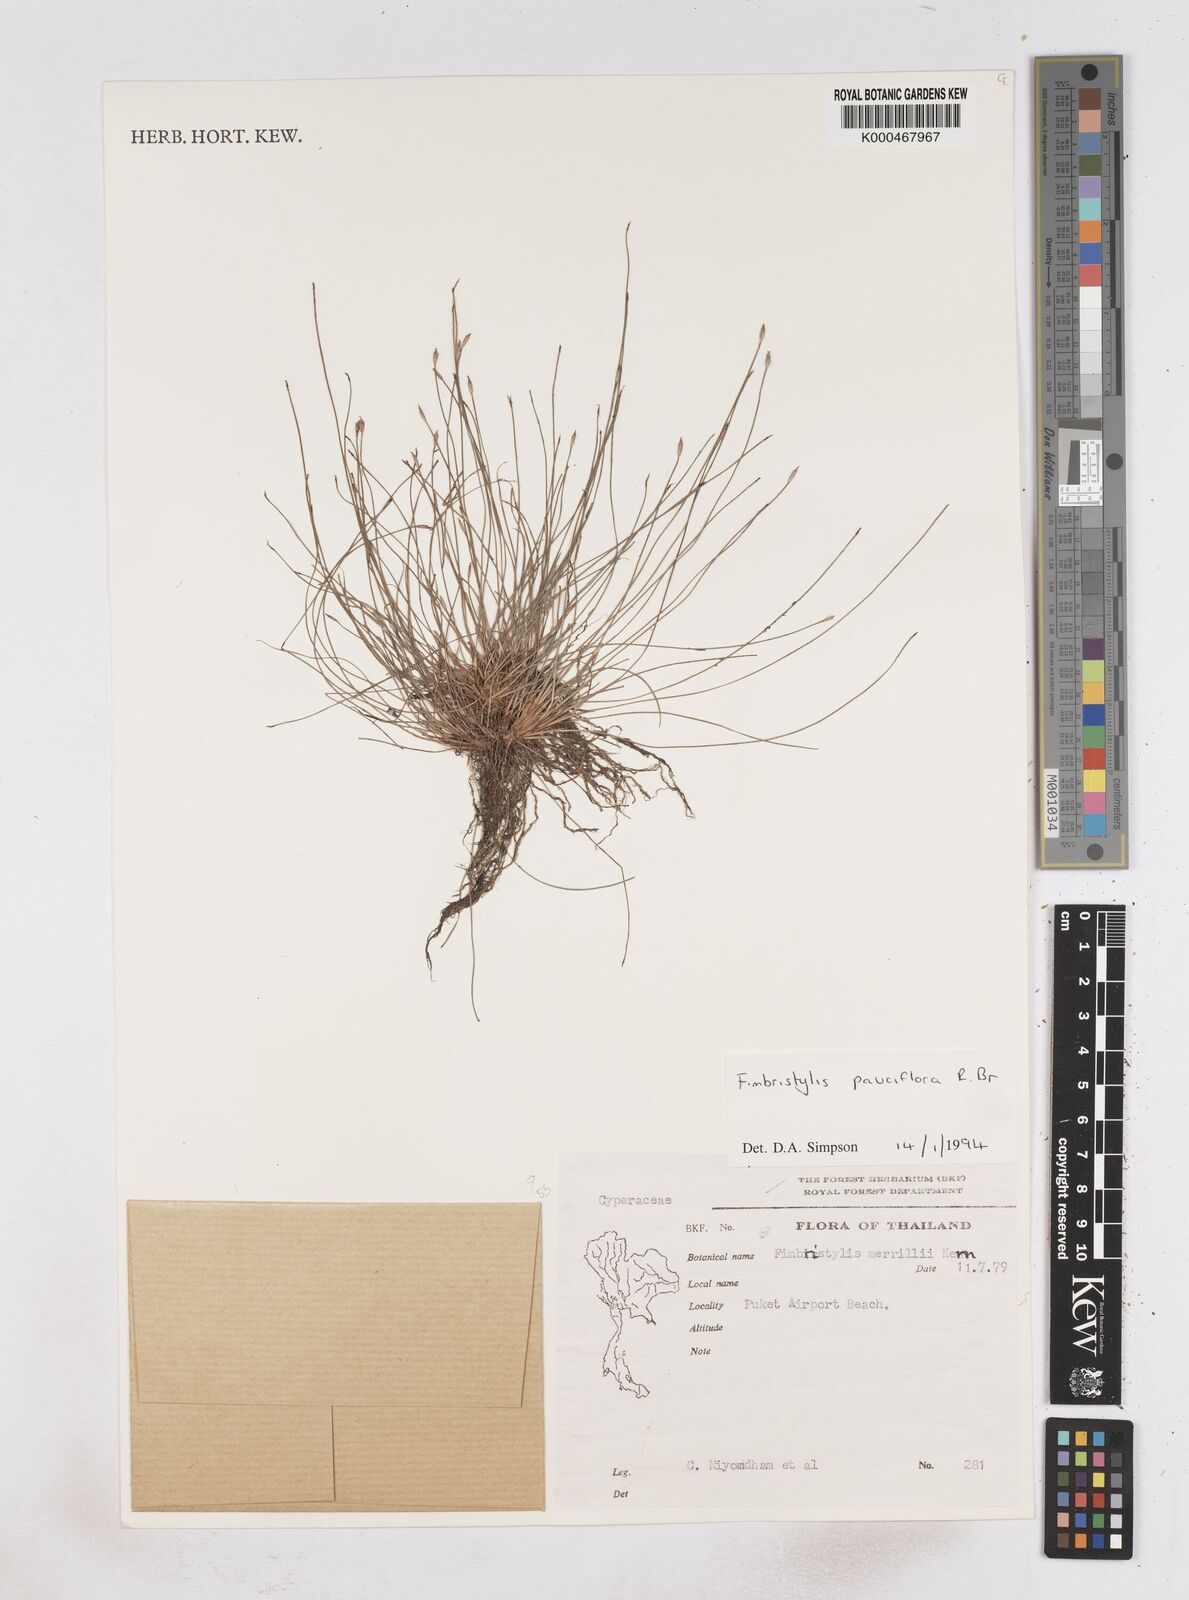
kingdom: Plantae
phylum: Tracheophyta
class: Liliopsida
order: Poales
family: Cyperaceae
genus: Fimbristylis
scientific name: Fimbristylis pauciflora
